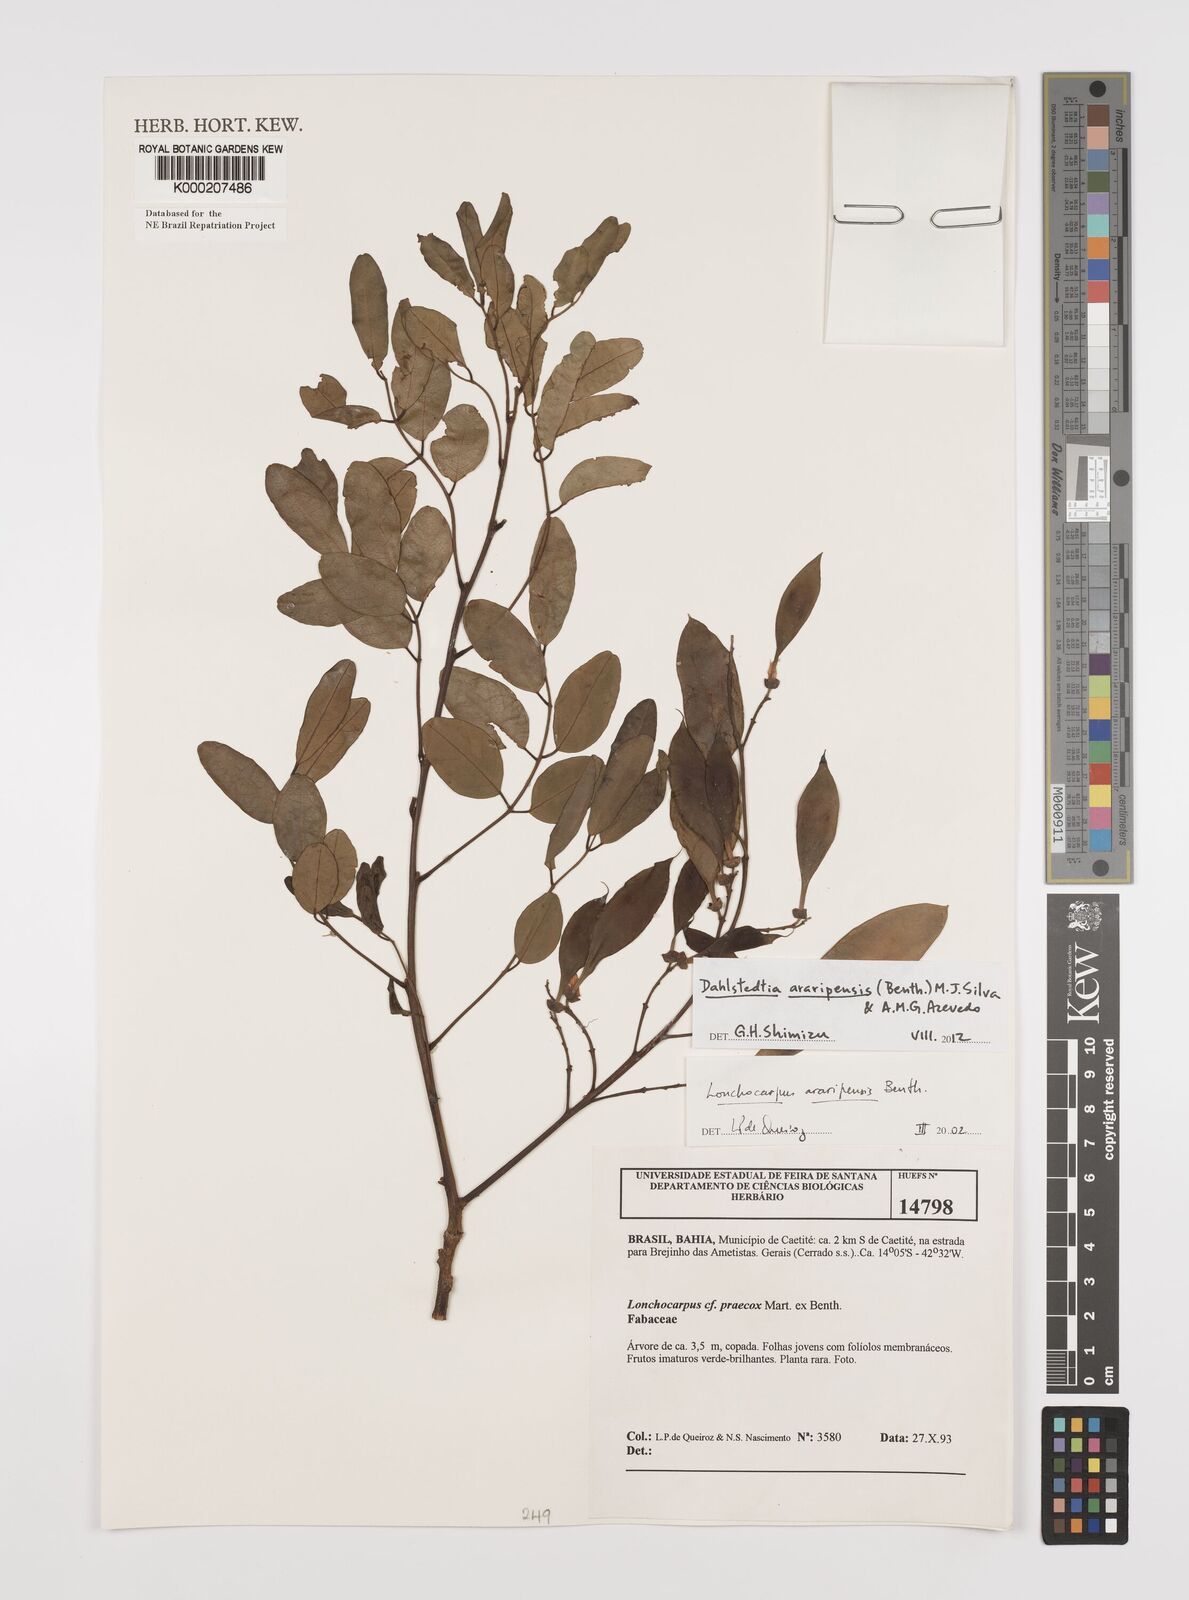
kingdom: Plantae
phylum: Tracheophyta
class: Magnoliopsida
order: Fabales
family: Fabaceae
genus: Dahlstedtia
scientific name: Dahlstedtia araripensis
